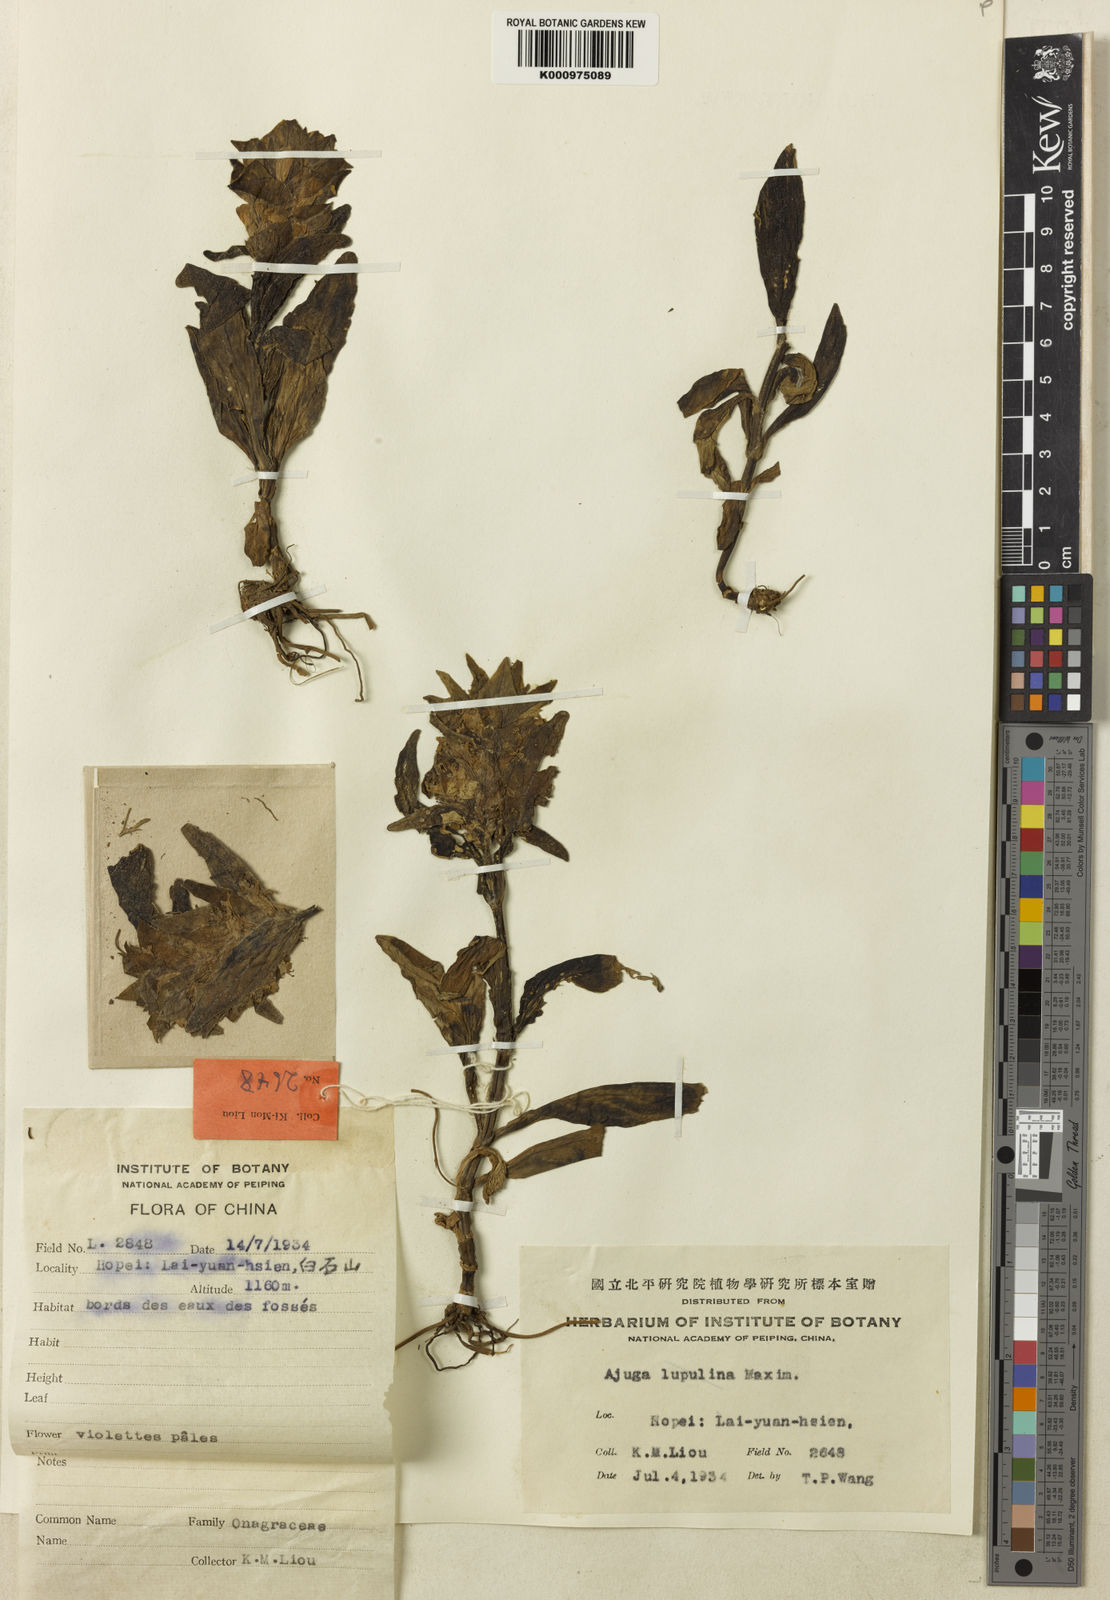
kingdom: Plantae
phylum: Tracheophyta
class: Magnoliopsida
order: Lamiales
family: Lamiaceae
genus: Ajuga
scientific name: Ajuga lupulina
